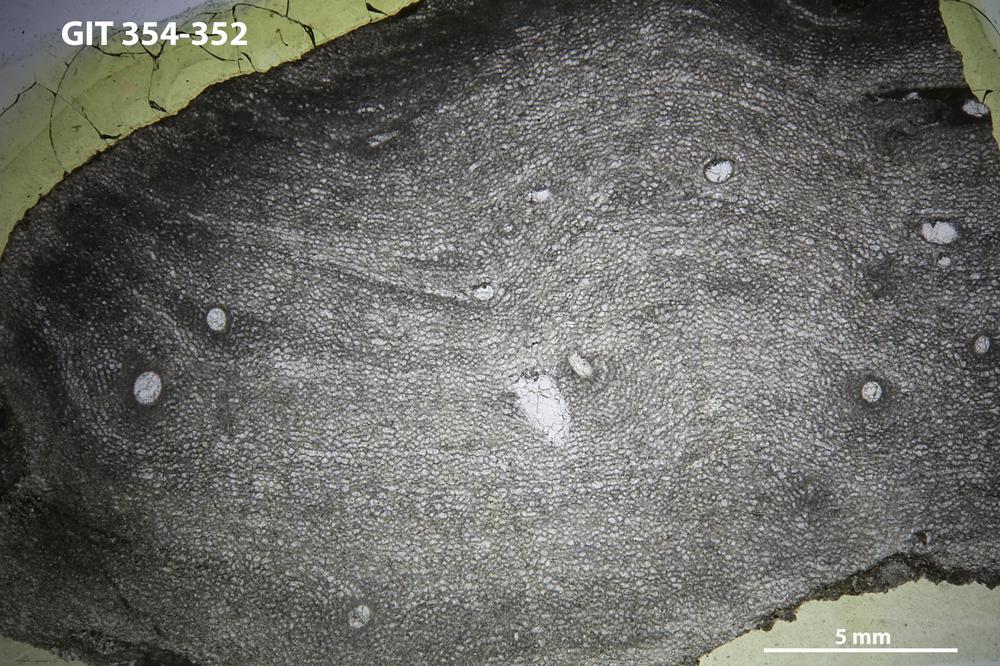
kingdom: Animalia
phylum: Porifera
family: Clathrodictyidae
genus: Clathrodictyon
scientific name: Clathrodictyon boreale
